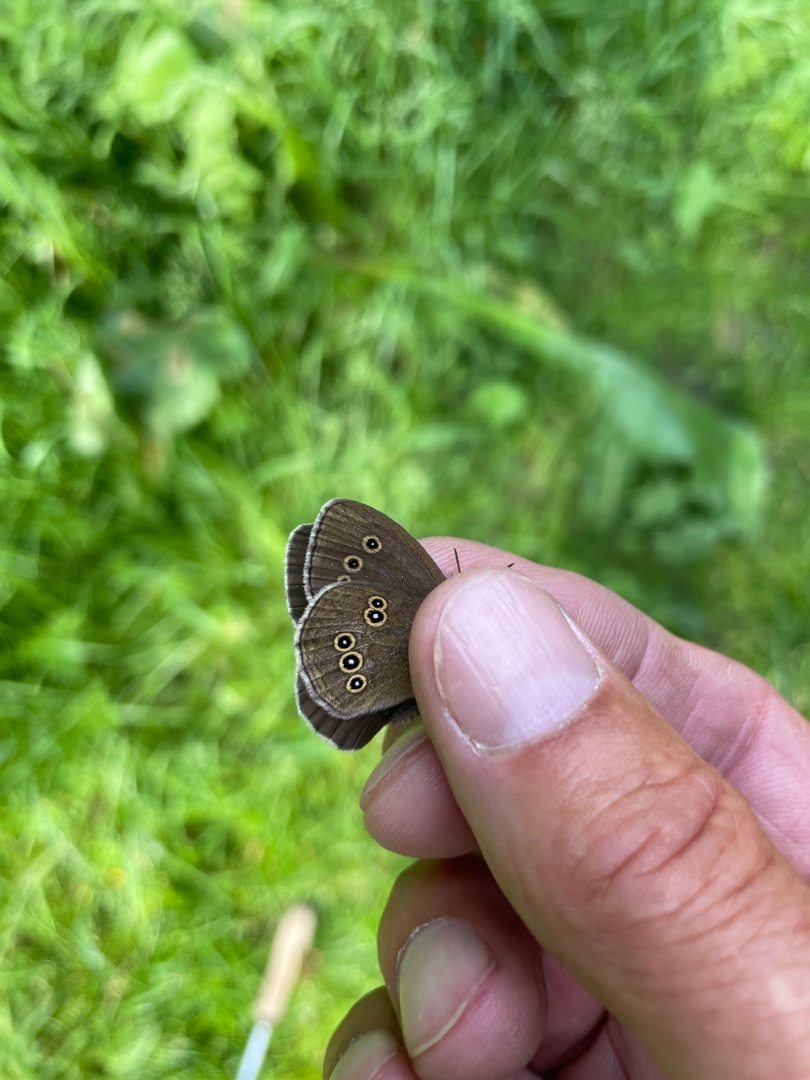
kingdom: Animalia
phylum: Arthropoda
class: Insecta
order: Lepidoptera
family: Nymphalidae
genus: Aphantopus
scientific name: Aphantopus hyperantus
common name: Engrandøje
